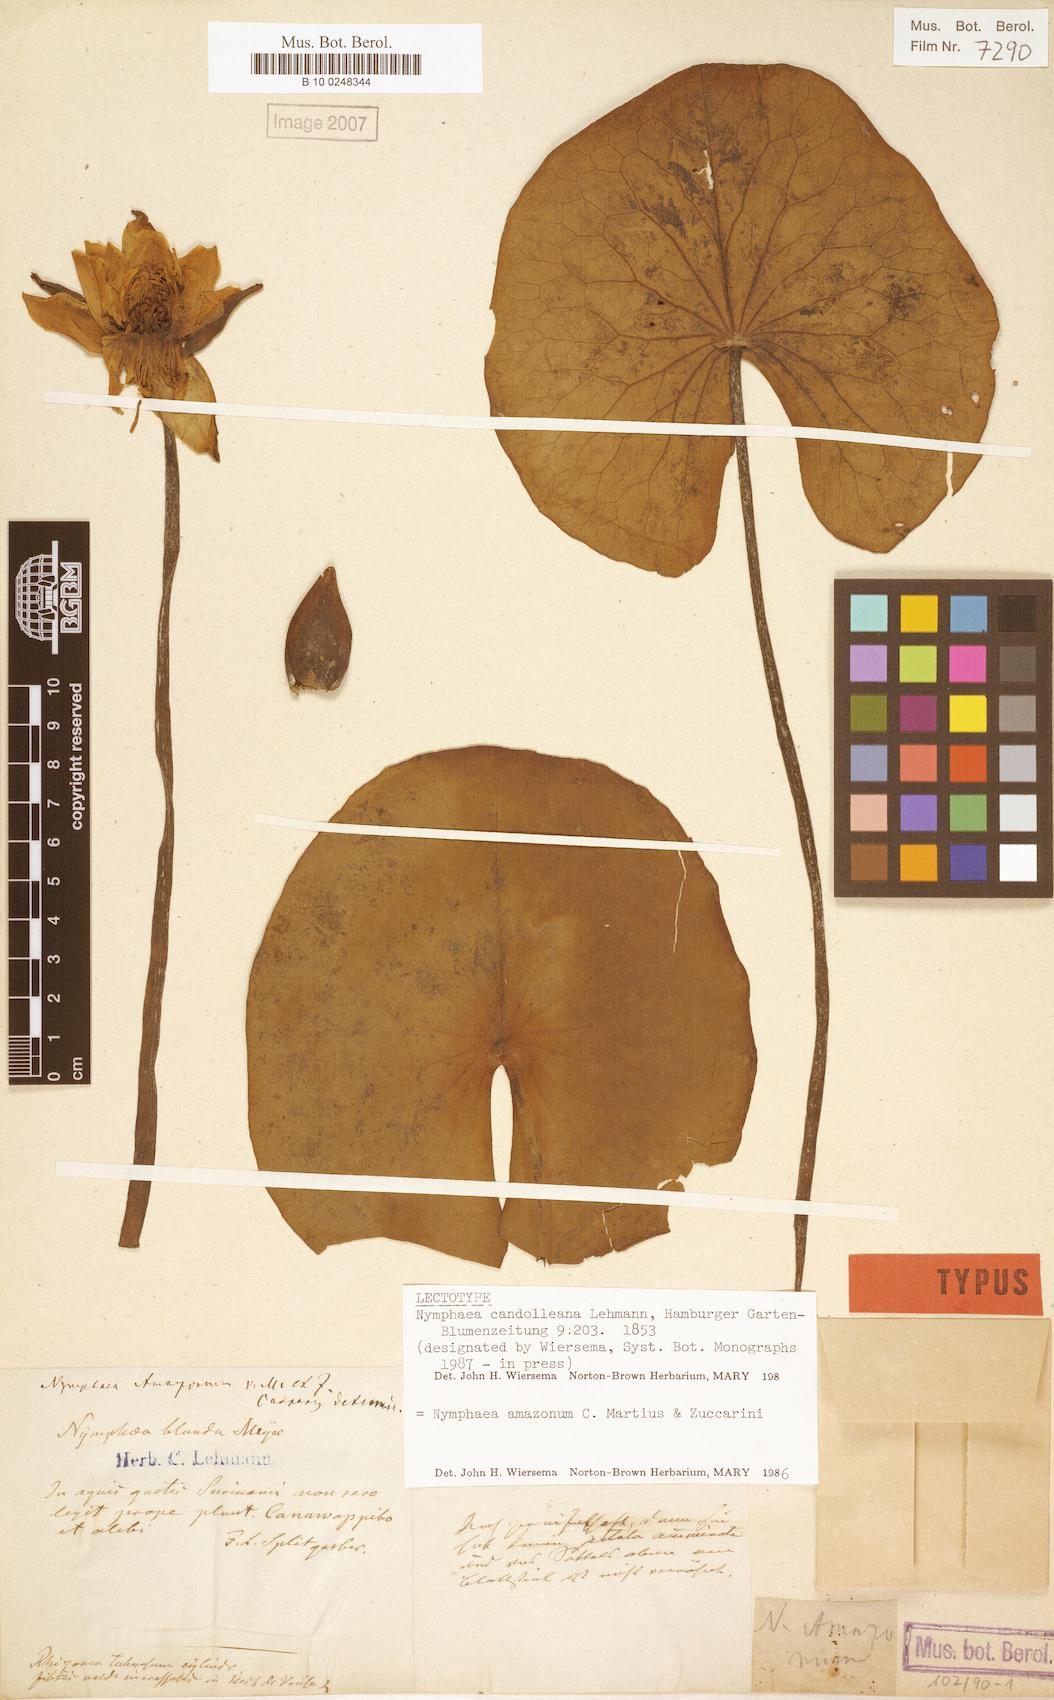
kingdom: Plantae
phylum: Tracheophyta
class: Magnoliopsida
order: Nymphaeales
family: Nymphaeaceae
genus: Nymphaea
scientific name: Nymphaea amazonum
